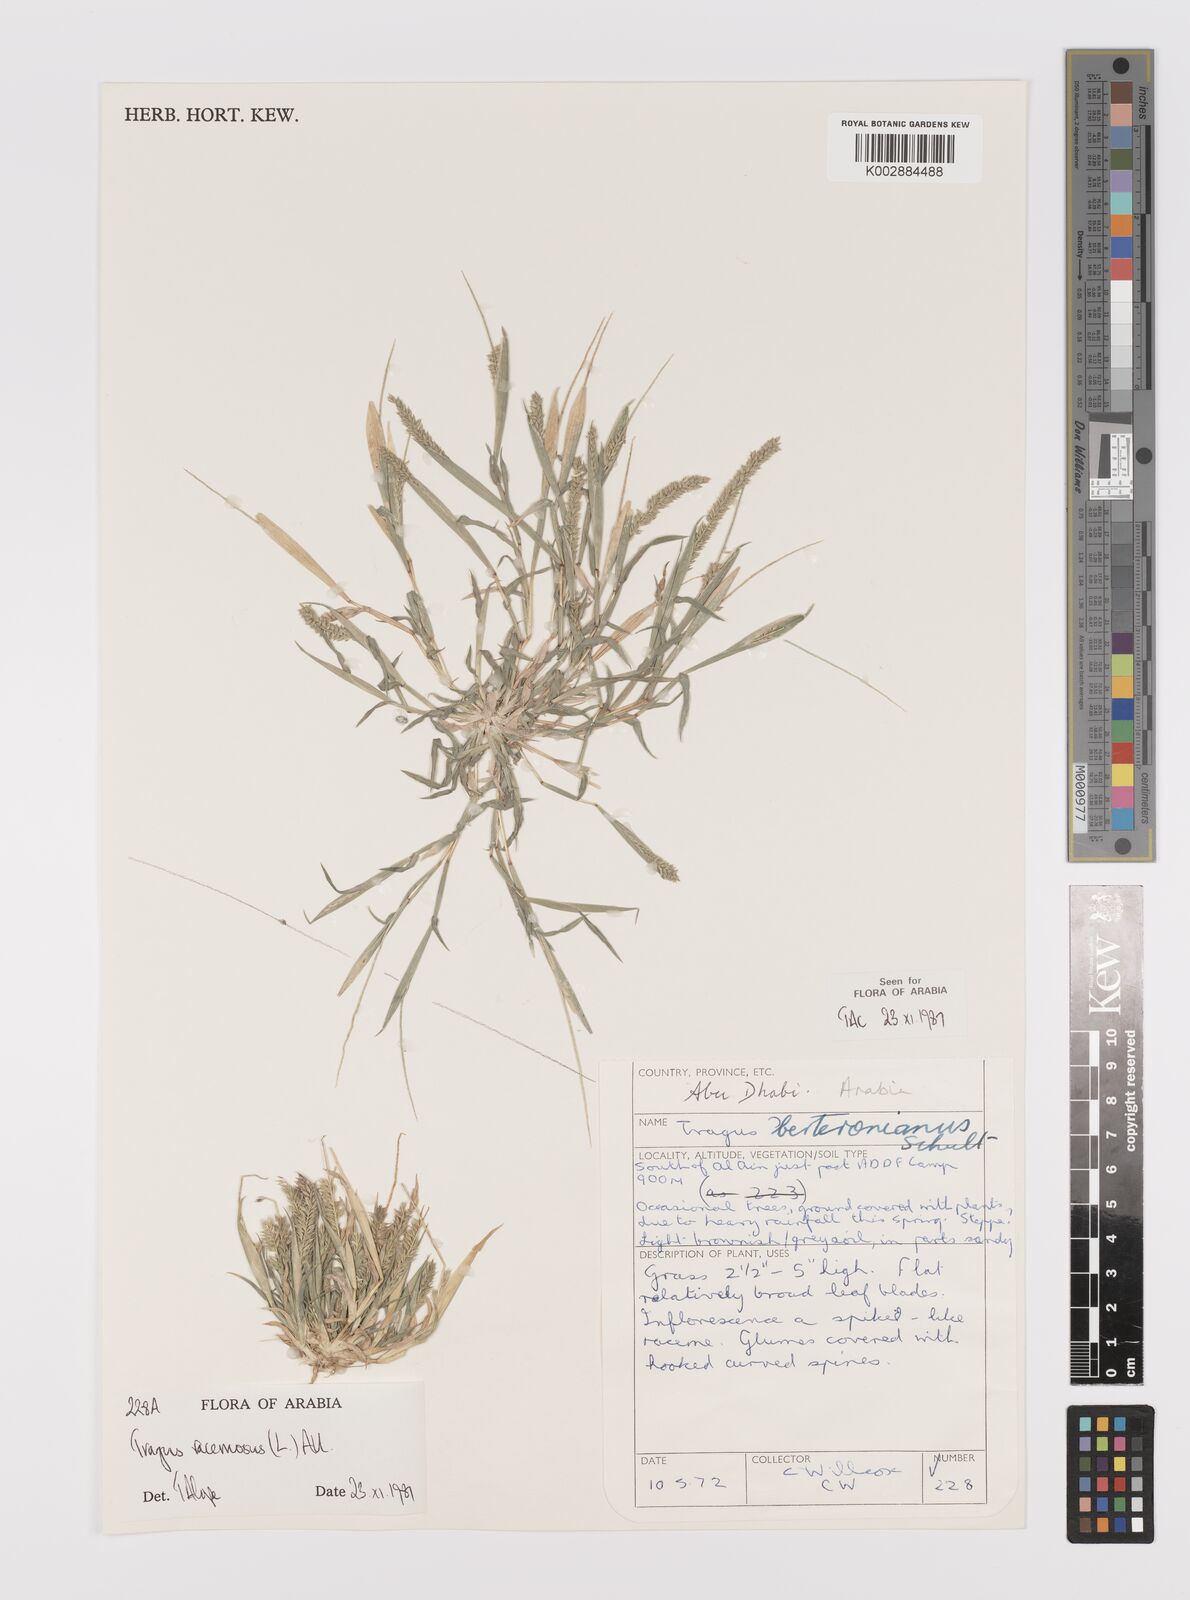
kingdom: Plantae
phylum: Tracheophyta
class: Liliopsida
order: Poales
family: Poaceae
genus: Tragus
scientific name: Tragus racemosus
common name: European bur-grass
